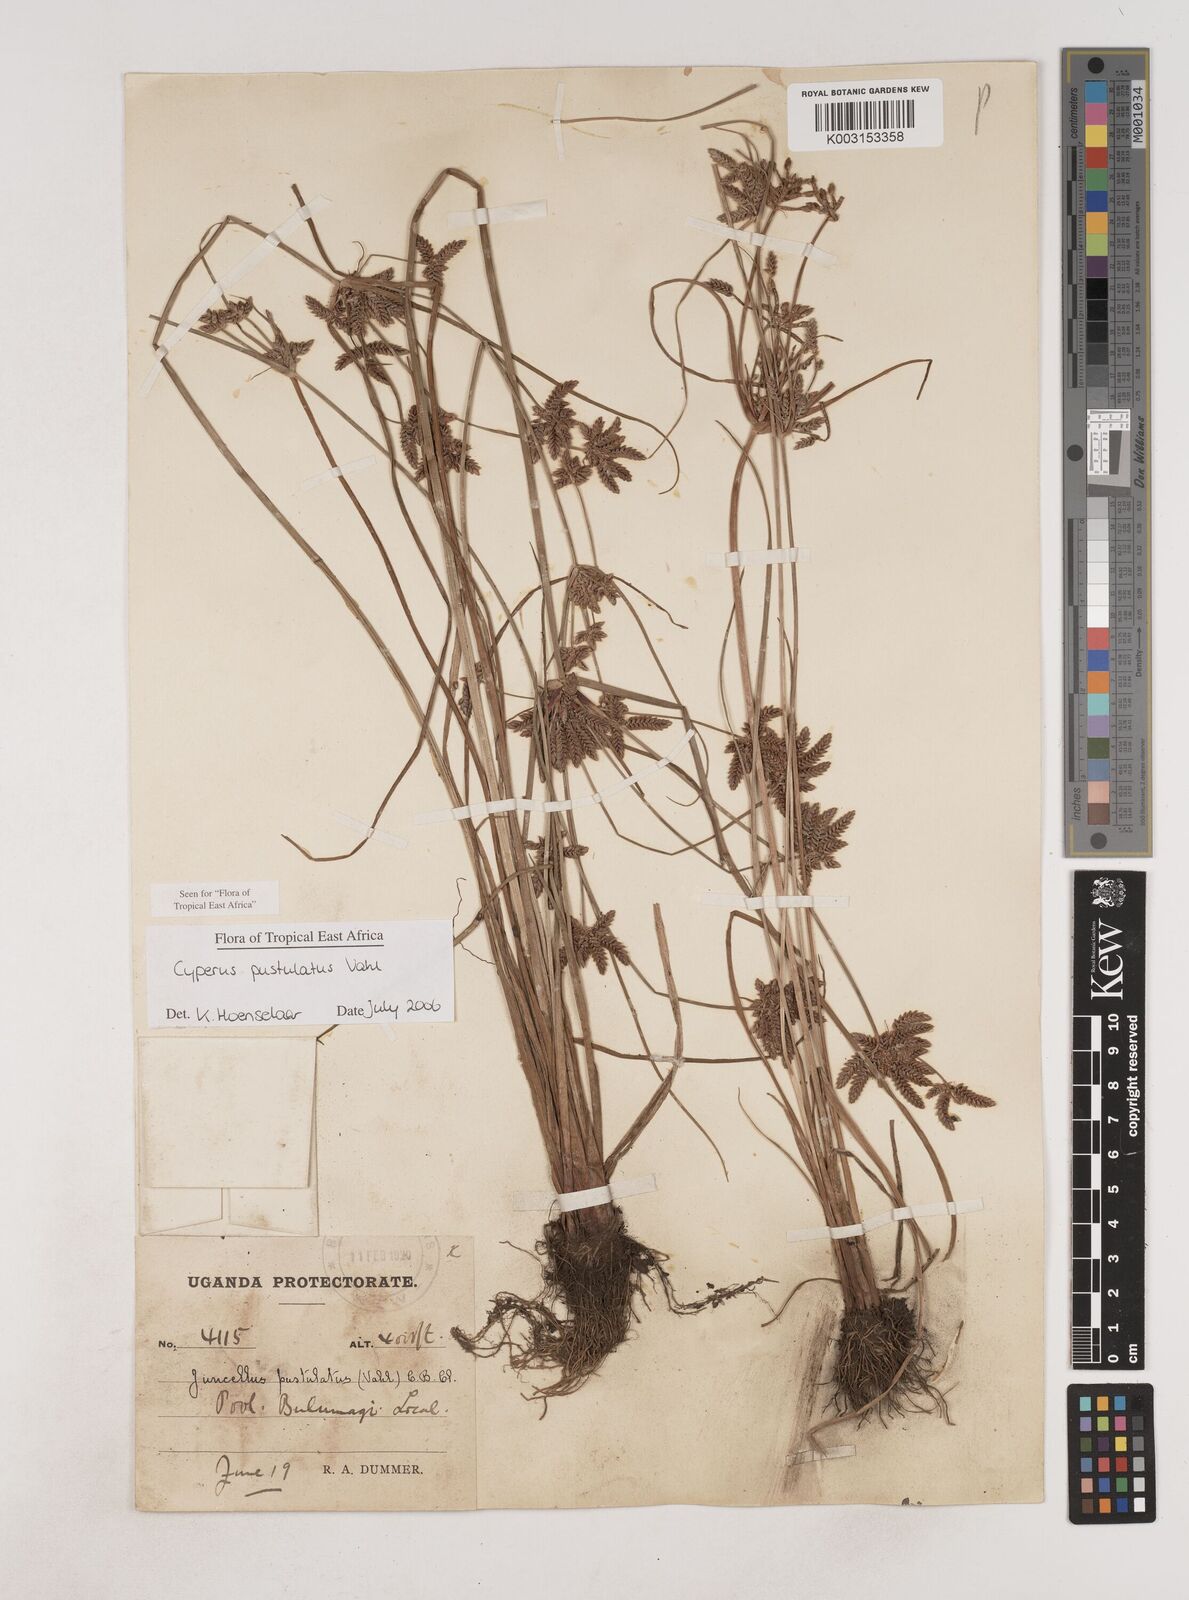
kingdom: Plantae
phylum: Tracheophyta
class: Liliopsida
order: Poales
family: Cyperaceae
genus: Cyperus
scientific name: Cyperus pustulatus
